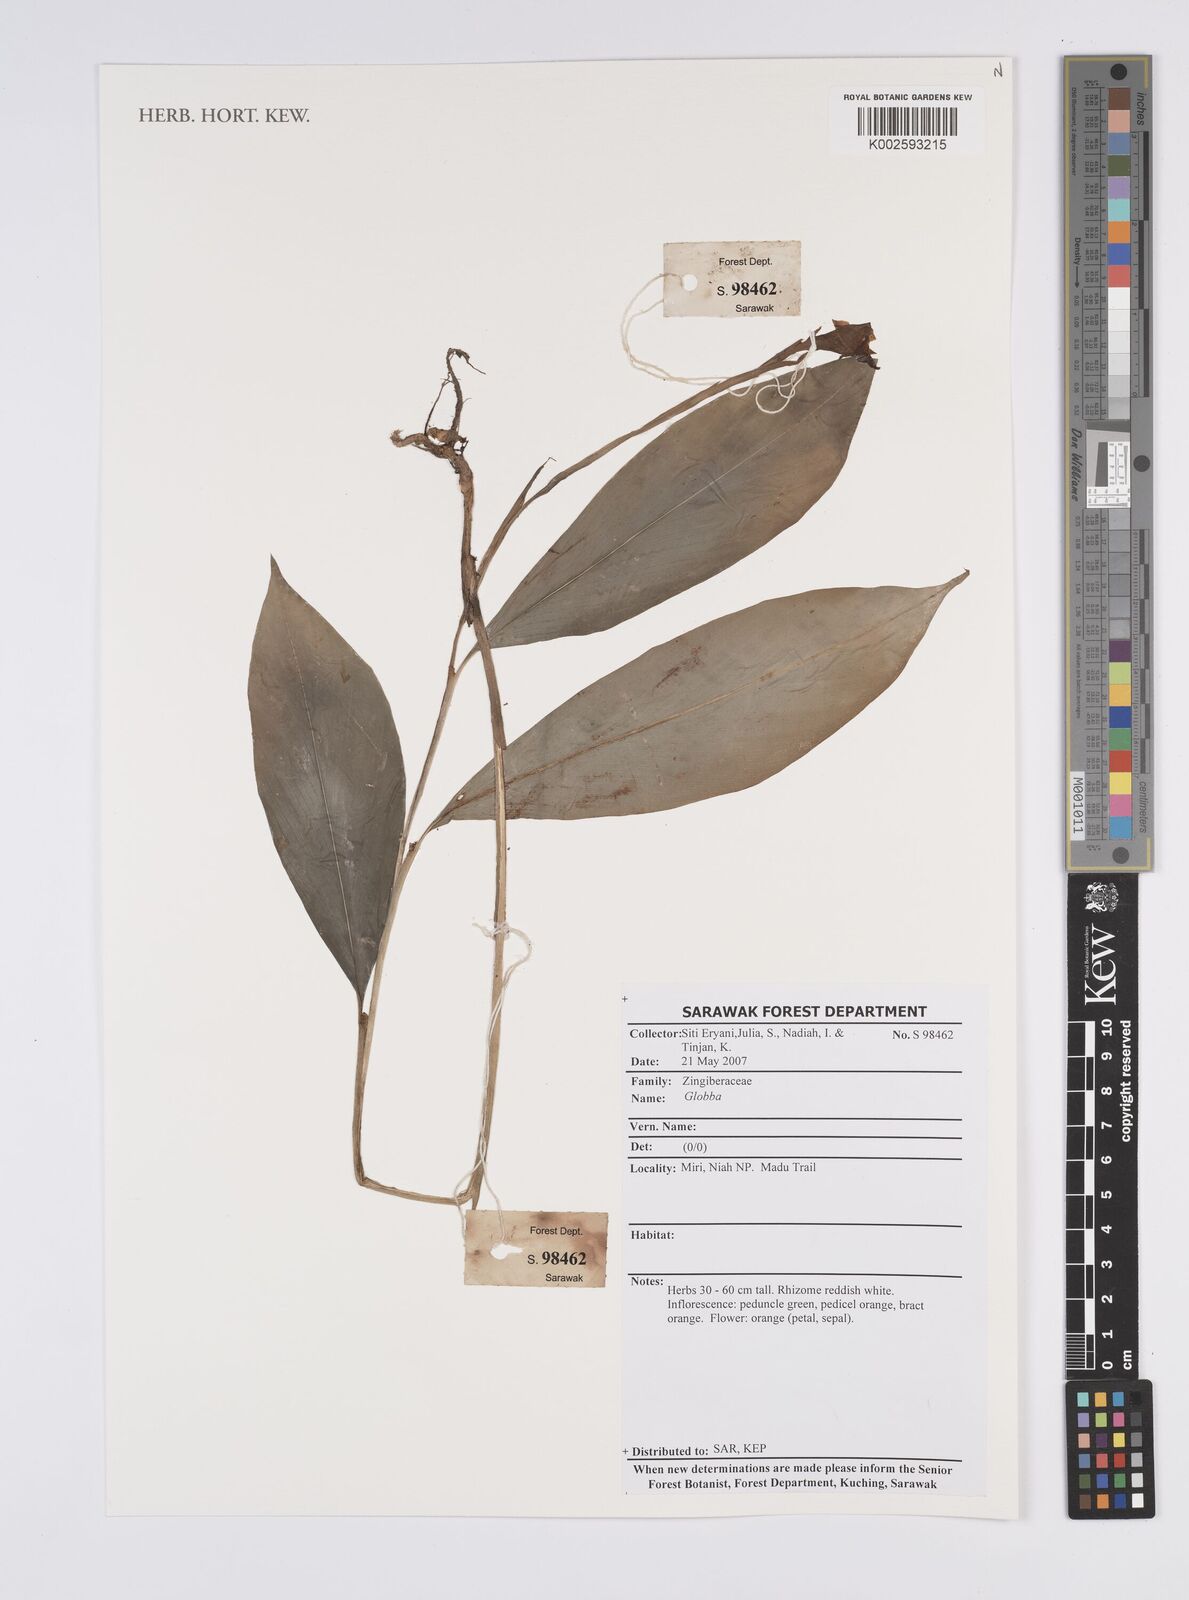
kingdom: Plantae
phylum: Tracheophyta
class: Liliopsida
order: Zingiberales
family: Zingiberaceae
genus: Globba
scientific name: Globba
